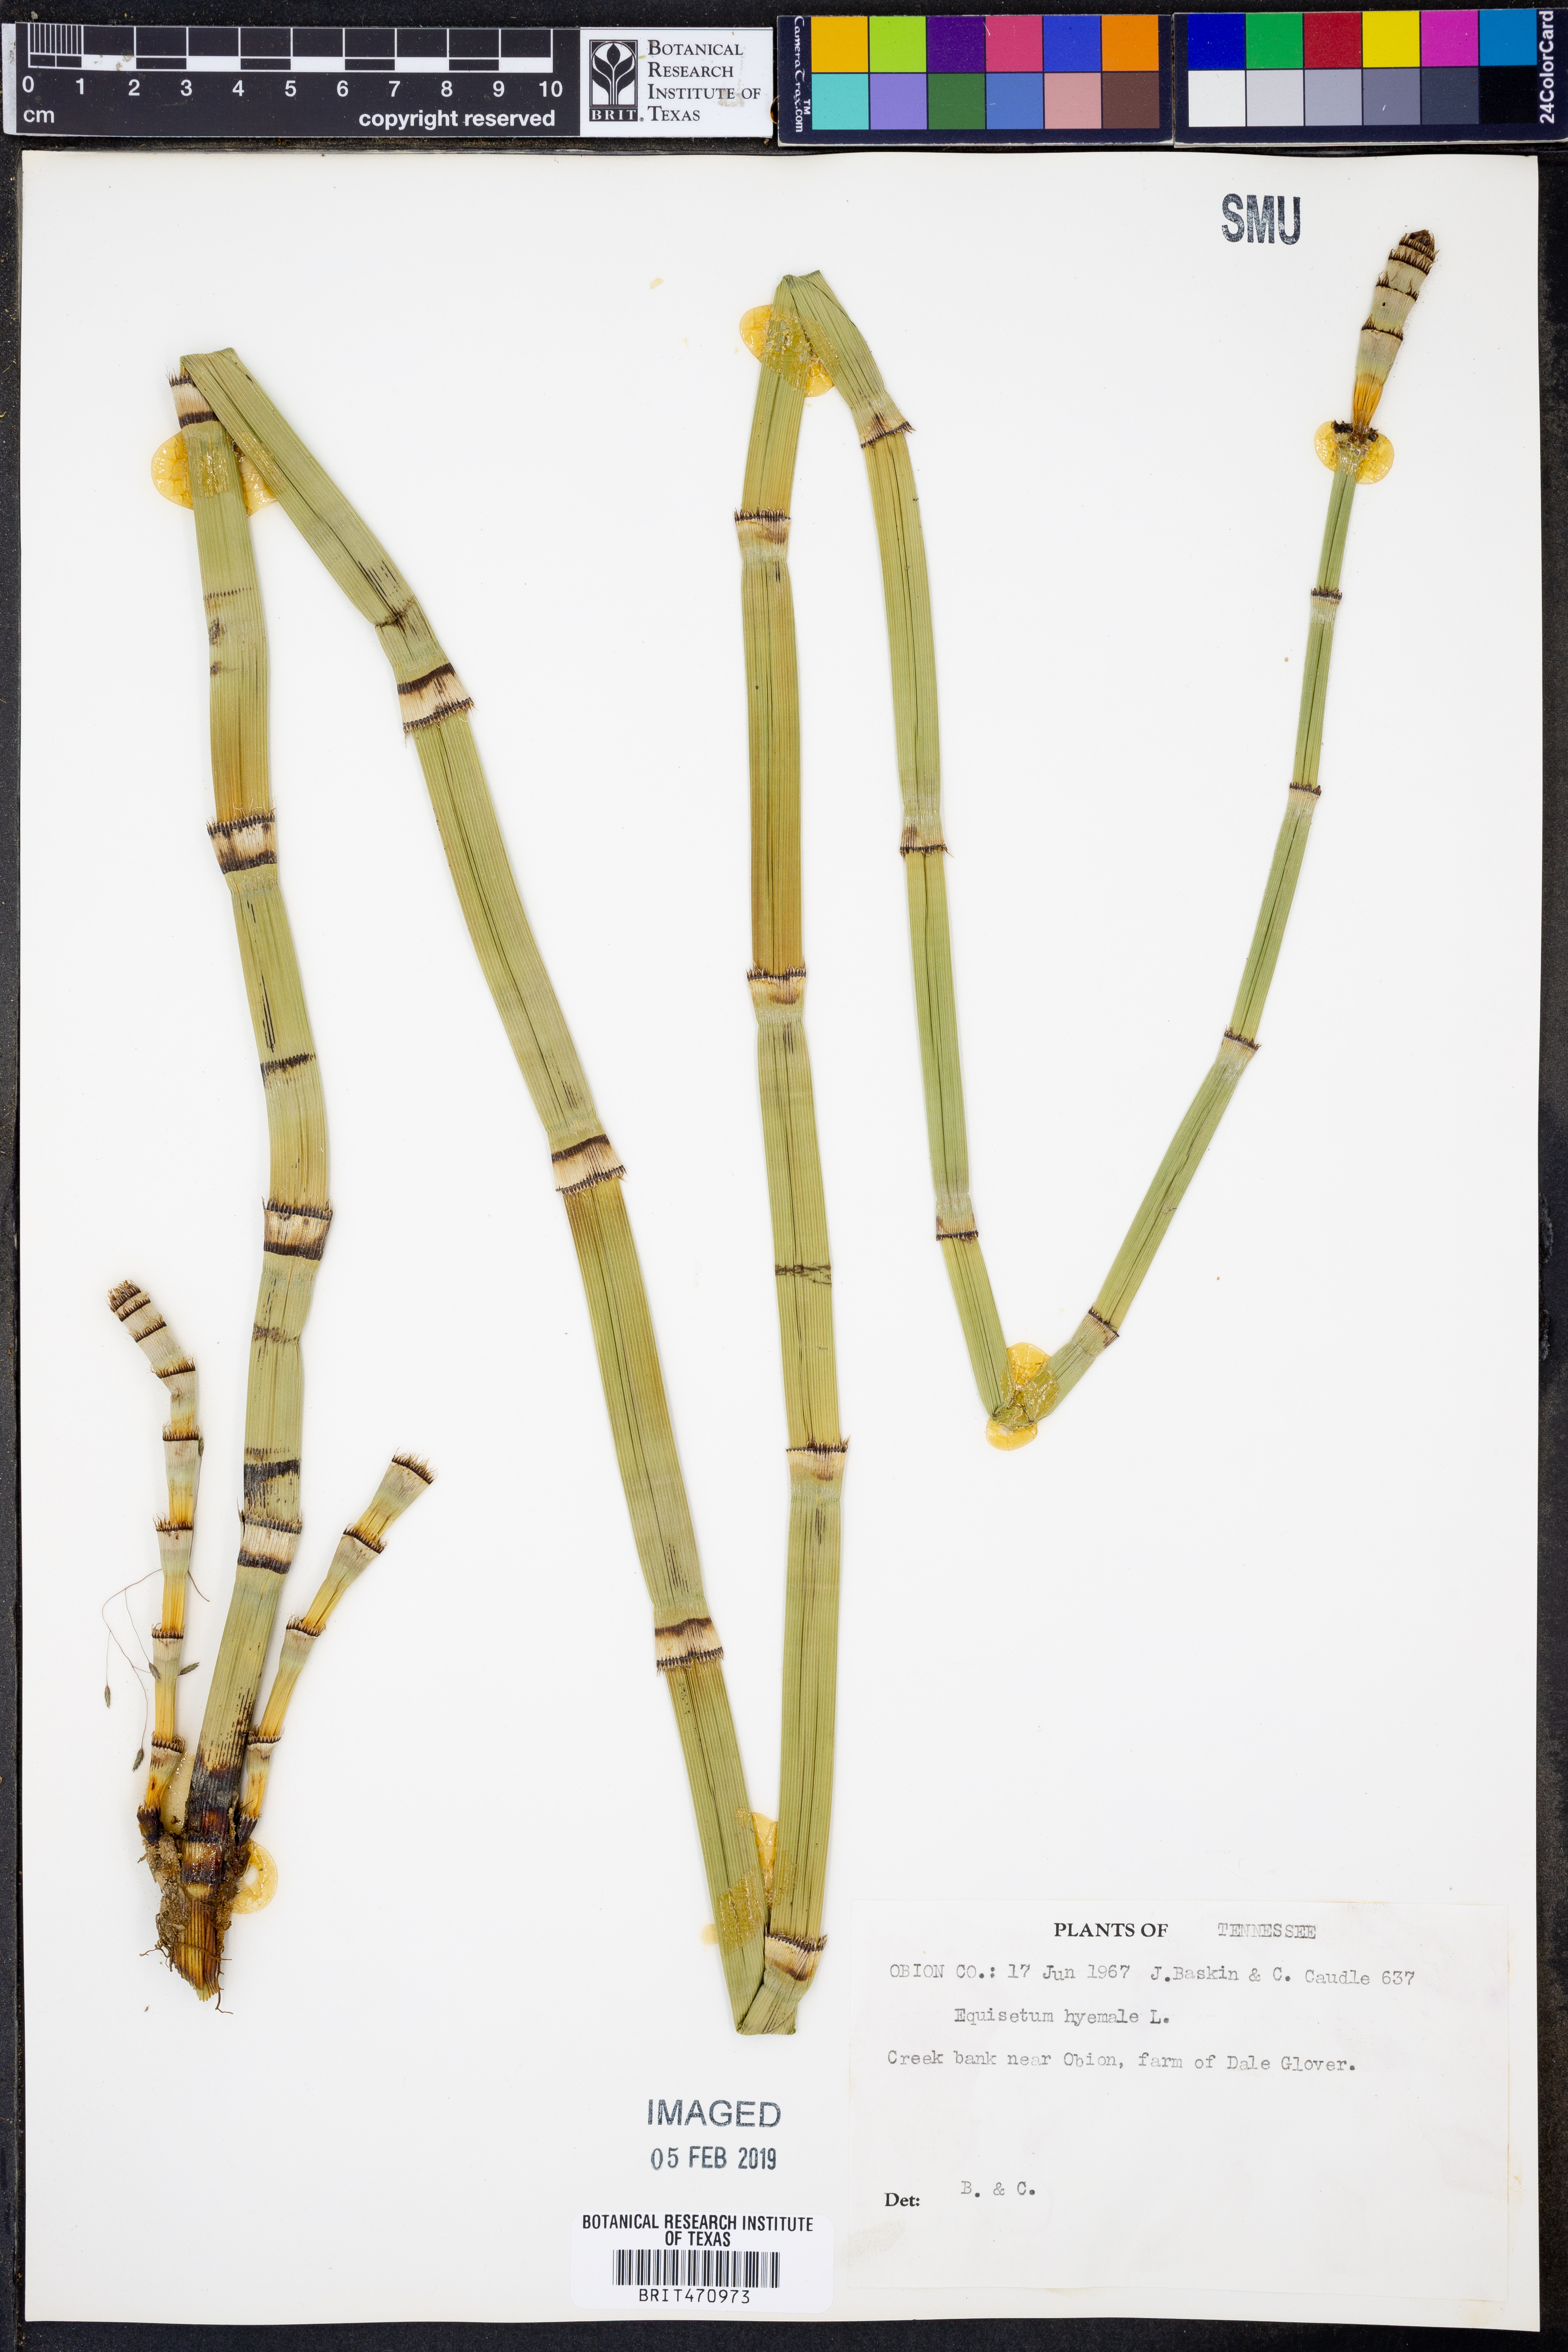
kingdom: Plantae
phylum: Tracheophyta
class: Polypodiopsida
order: Equisetales
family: Equisetaceae
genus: Equisetum
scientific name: Equisetum hyemale
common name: Rough horsetail
